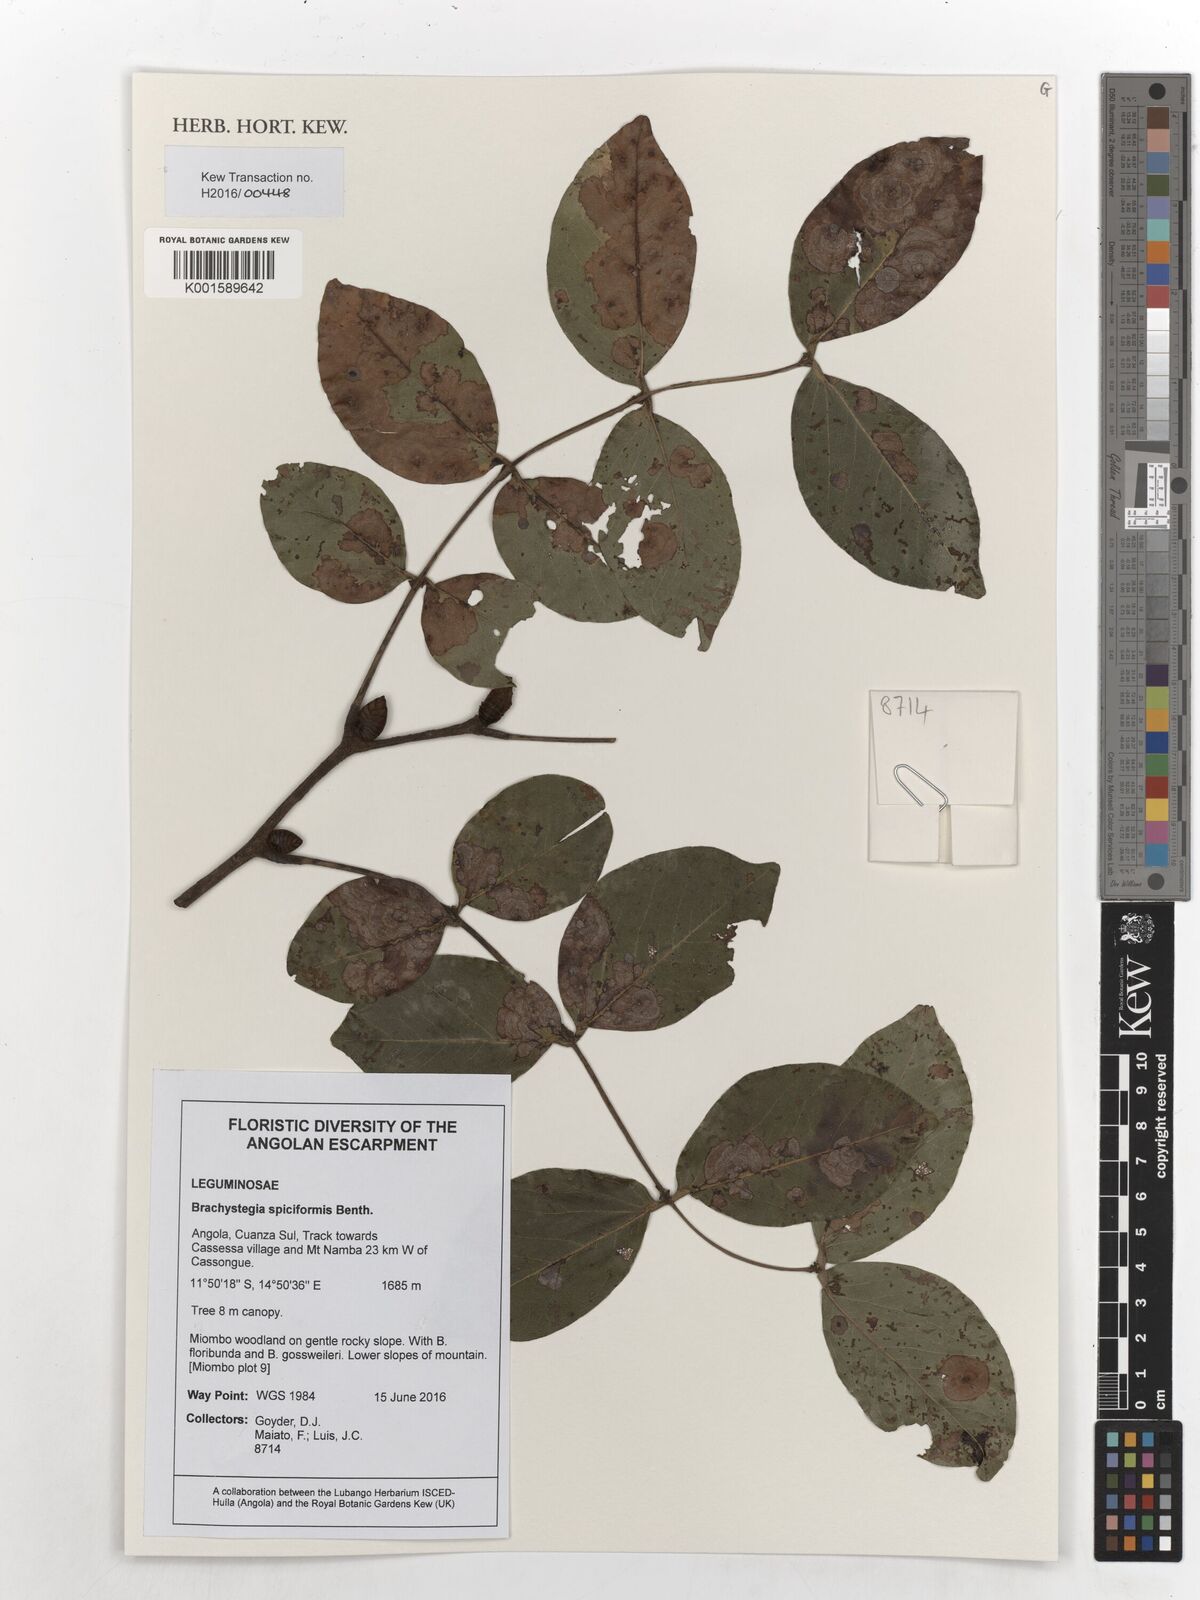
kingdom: Plantae
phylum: Tracheophyta
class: Magnoliopsida
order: Fabales
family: Fabaceae
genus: Brachystegia
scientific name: Brachystegia spiciformis
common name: Zebrawood
